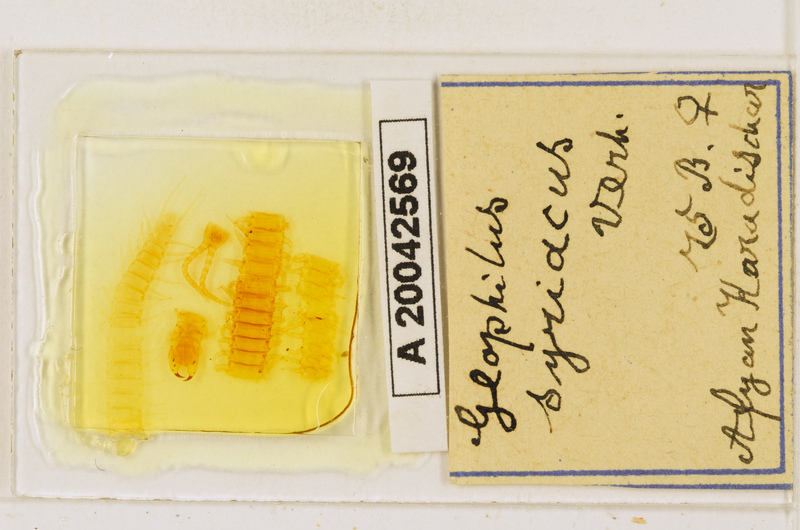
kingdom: Animalia
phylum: Arthropoda
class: Chilopoda
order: Geophilomorpha
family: Geophilidae
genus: Pachymerium
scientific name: Pachymerium syriacum
